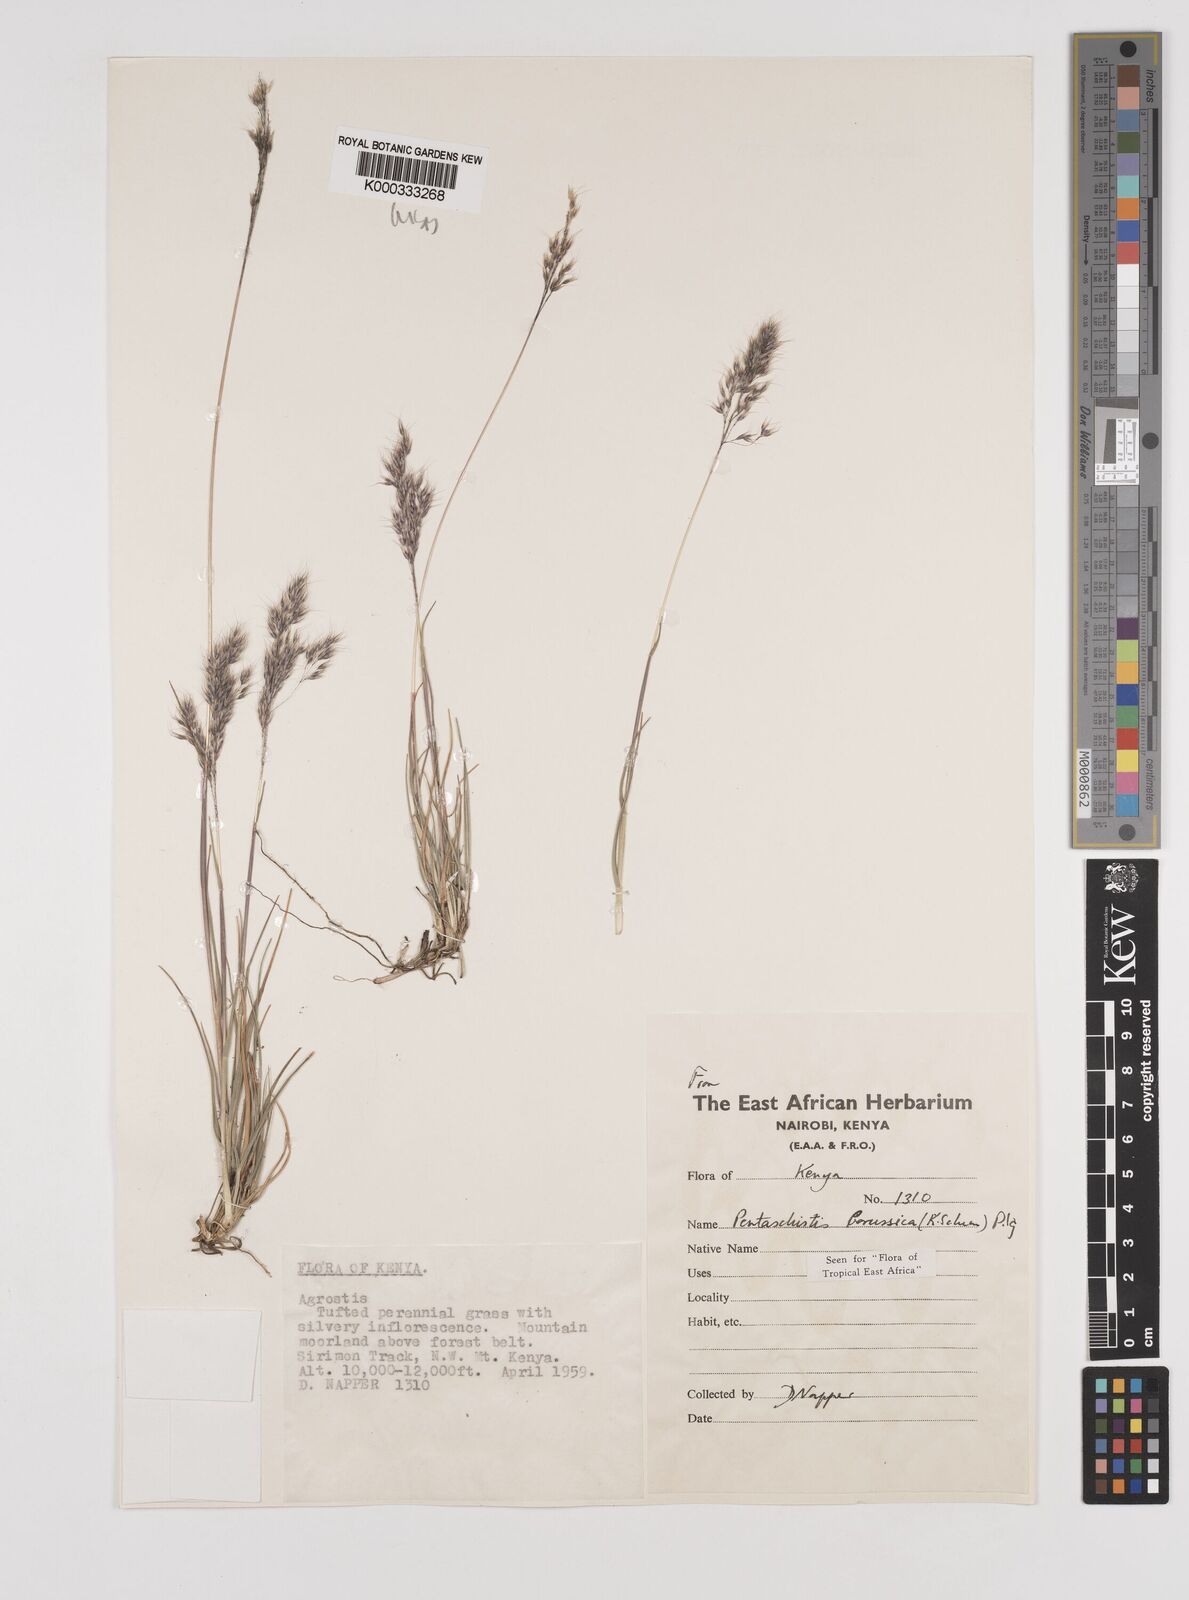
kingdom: Plantae
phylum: Tracheophyta
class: Liliopsida
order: Poales
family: Poaceae
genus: Pentameris
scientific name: Pentameris borussica
